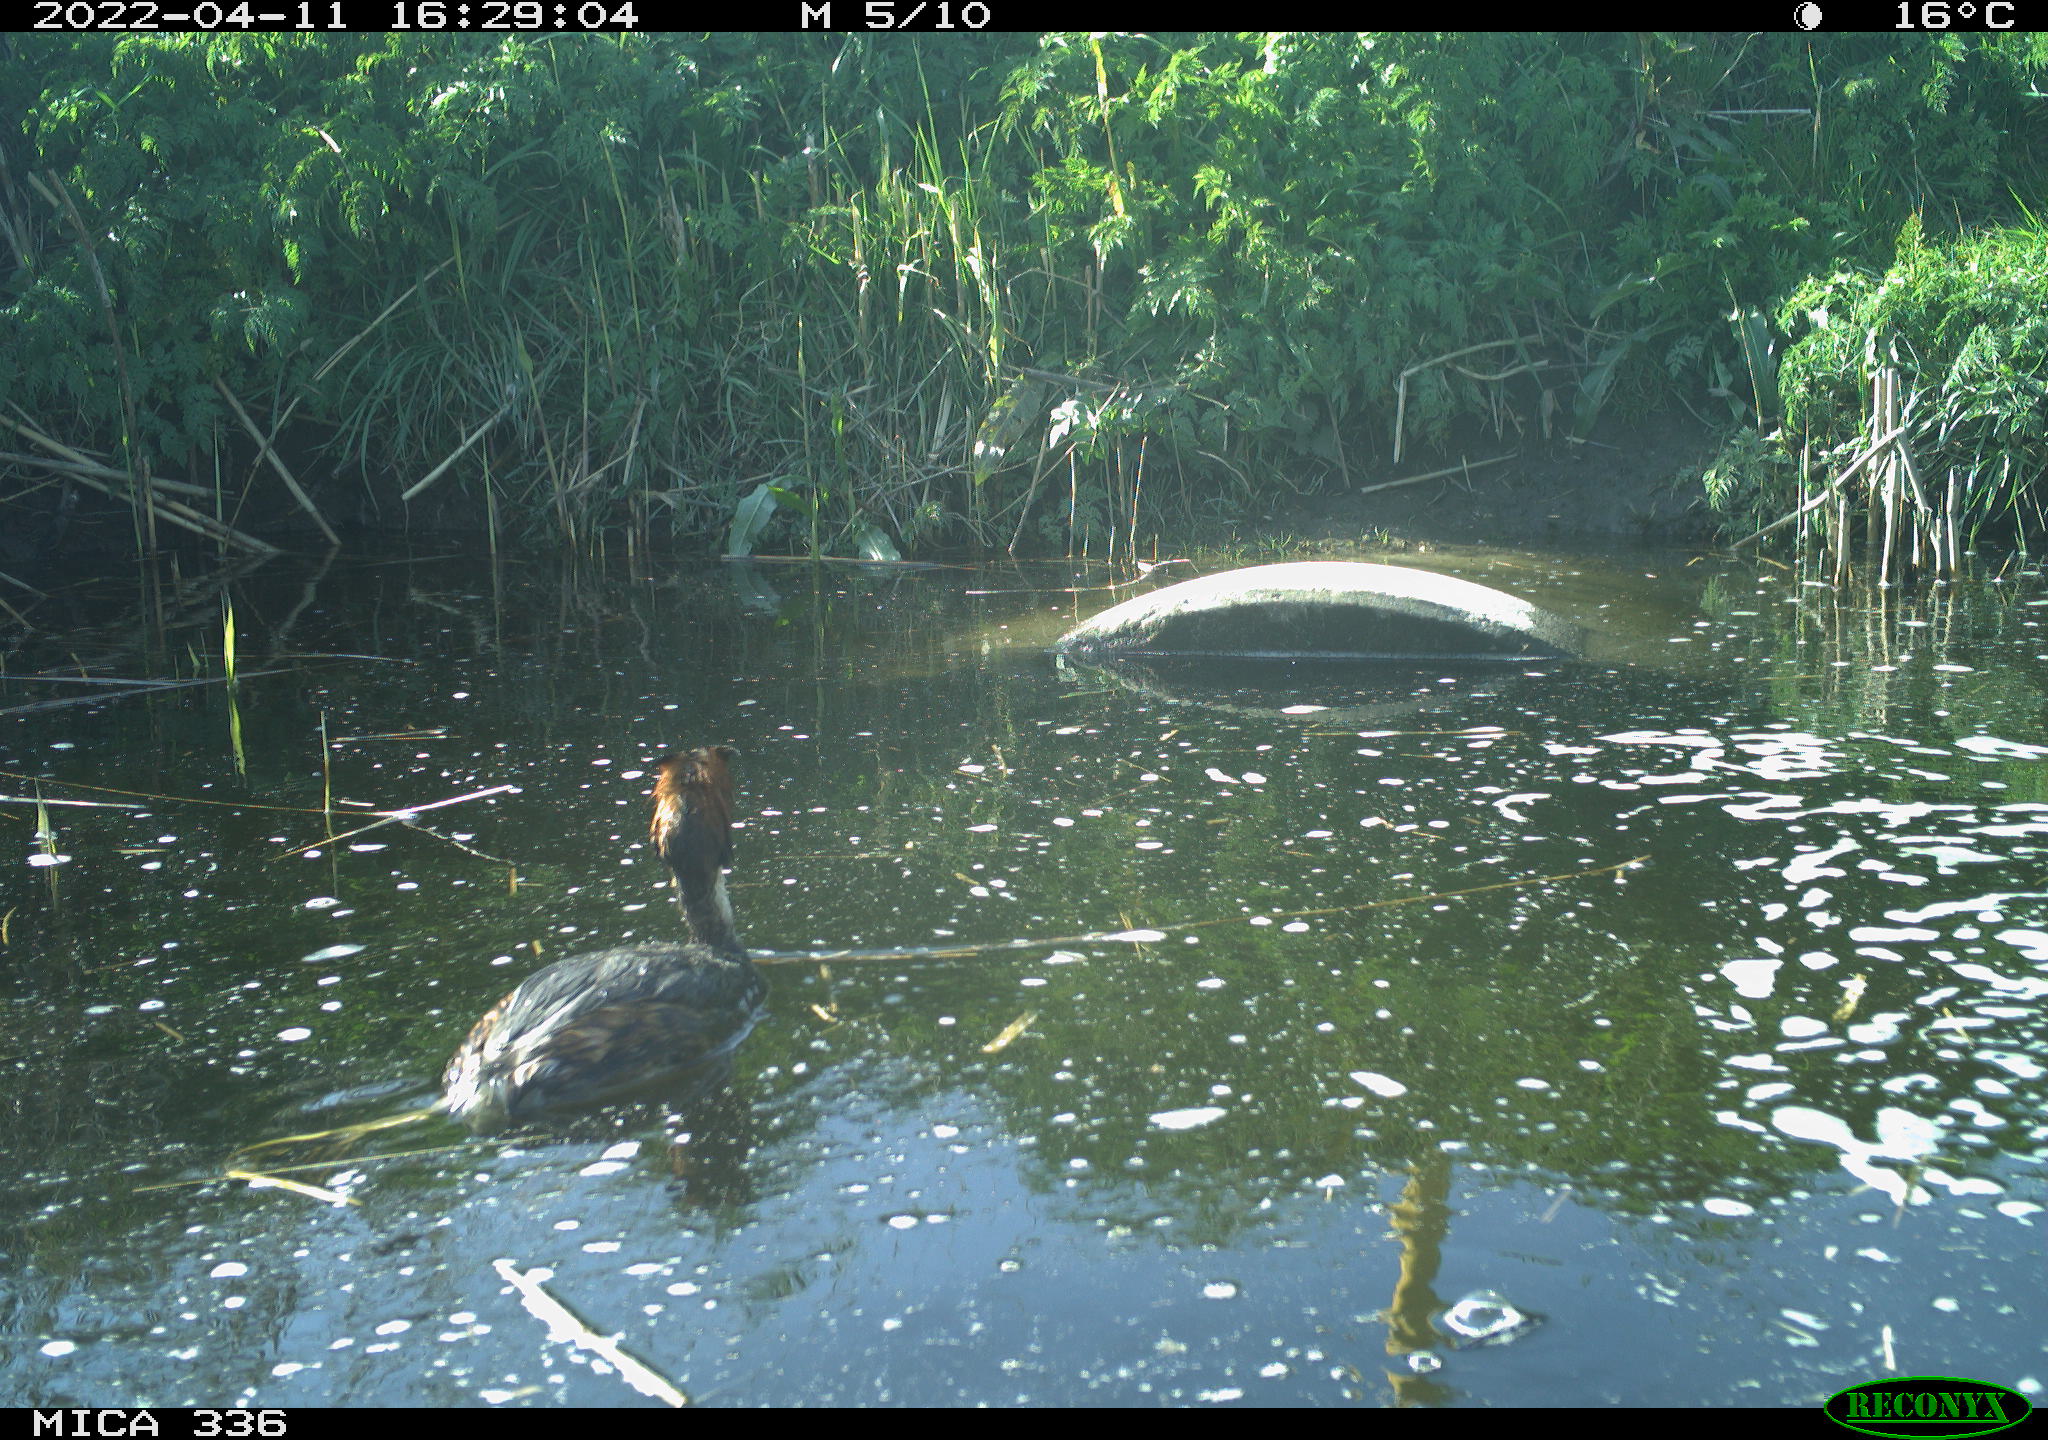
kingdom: Animalia
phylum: Chordata
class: Aves
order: Podicipediformes
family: Podicipedidae
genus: Podiceps
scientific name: Podiceps cristatus
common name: Great crested grebe
